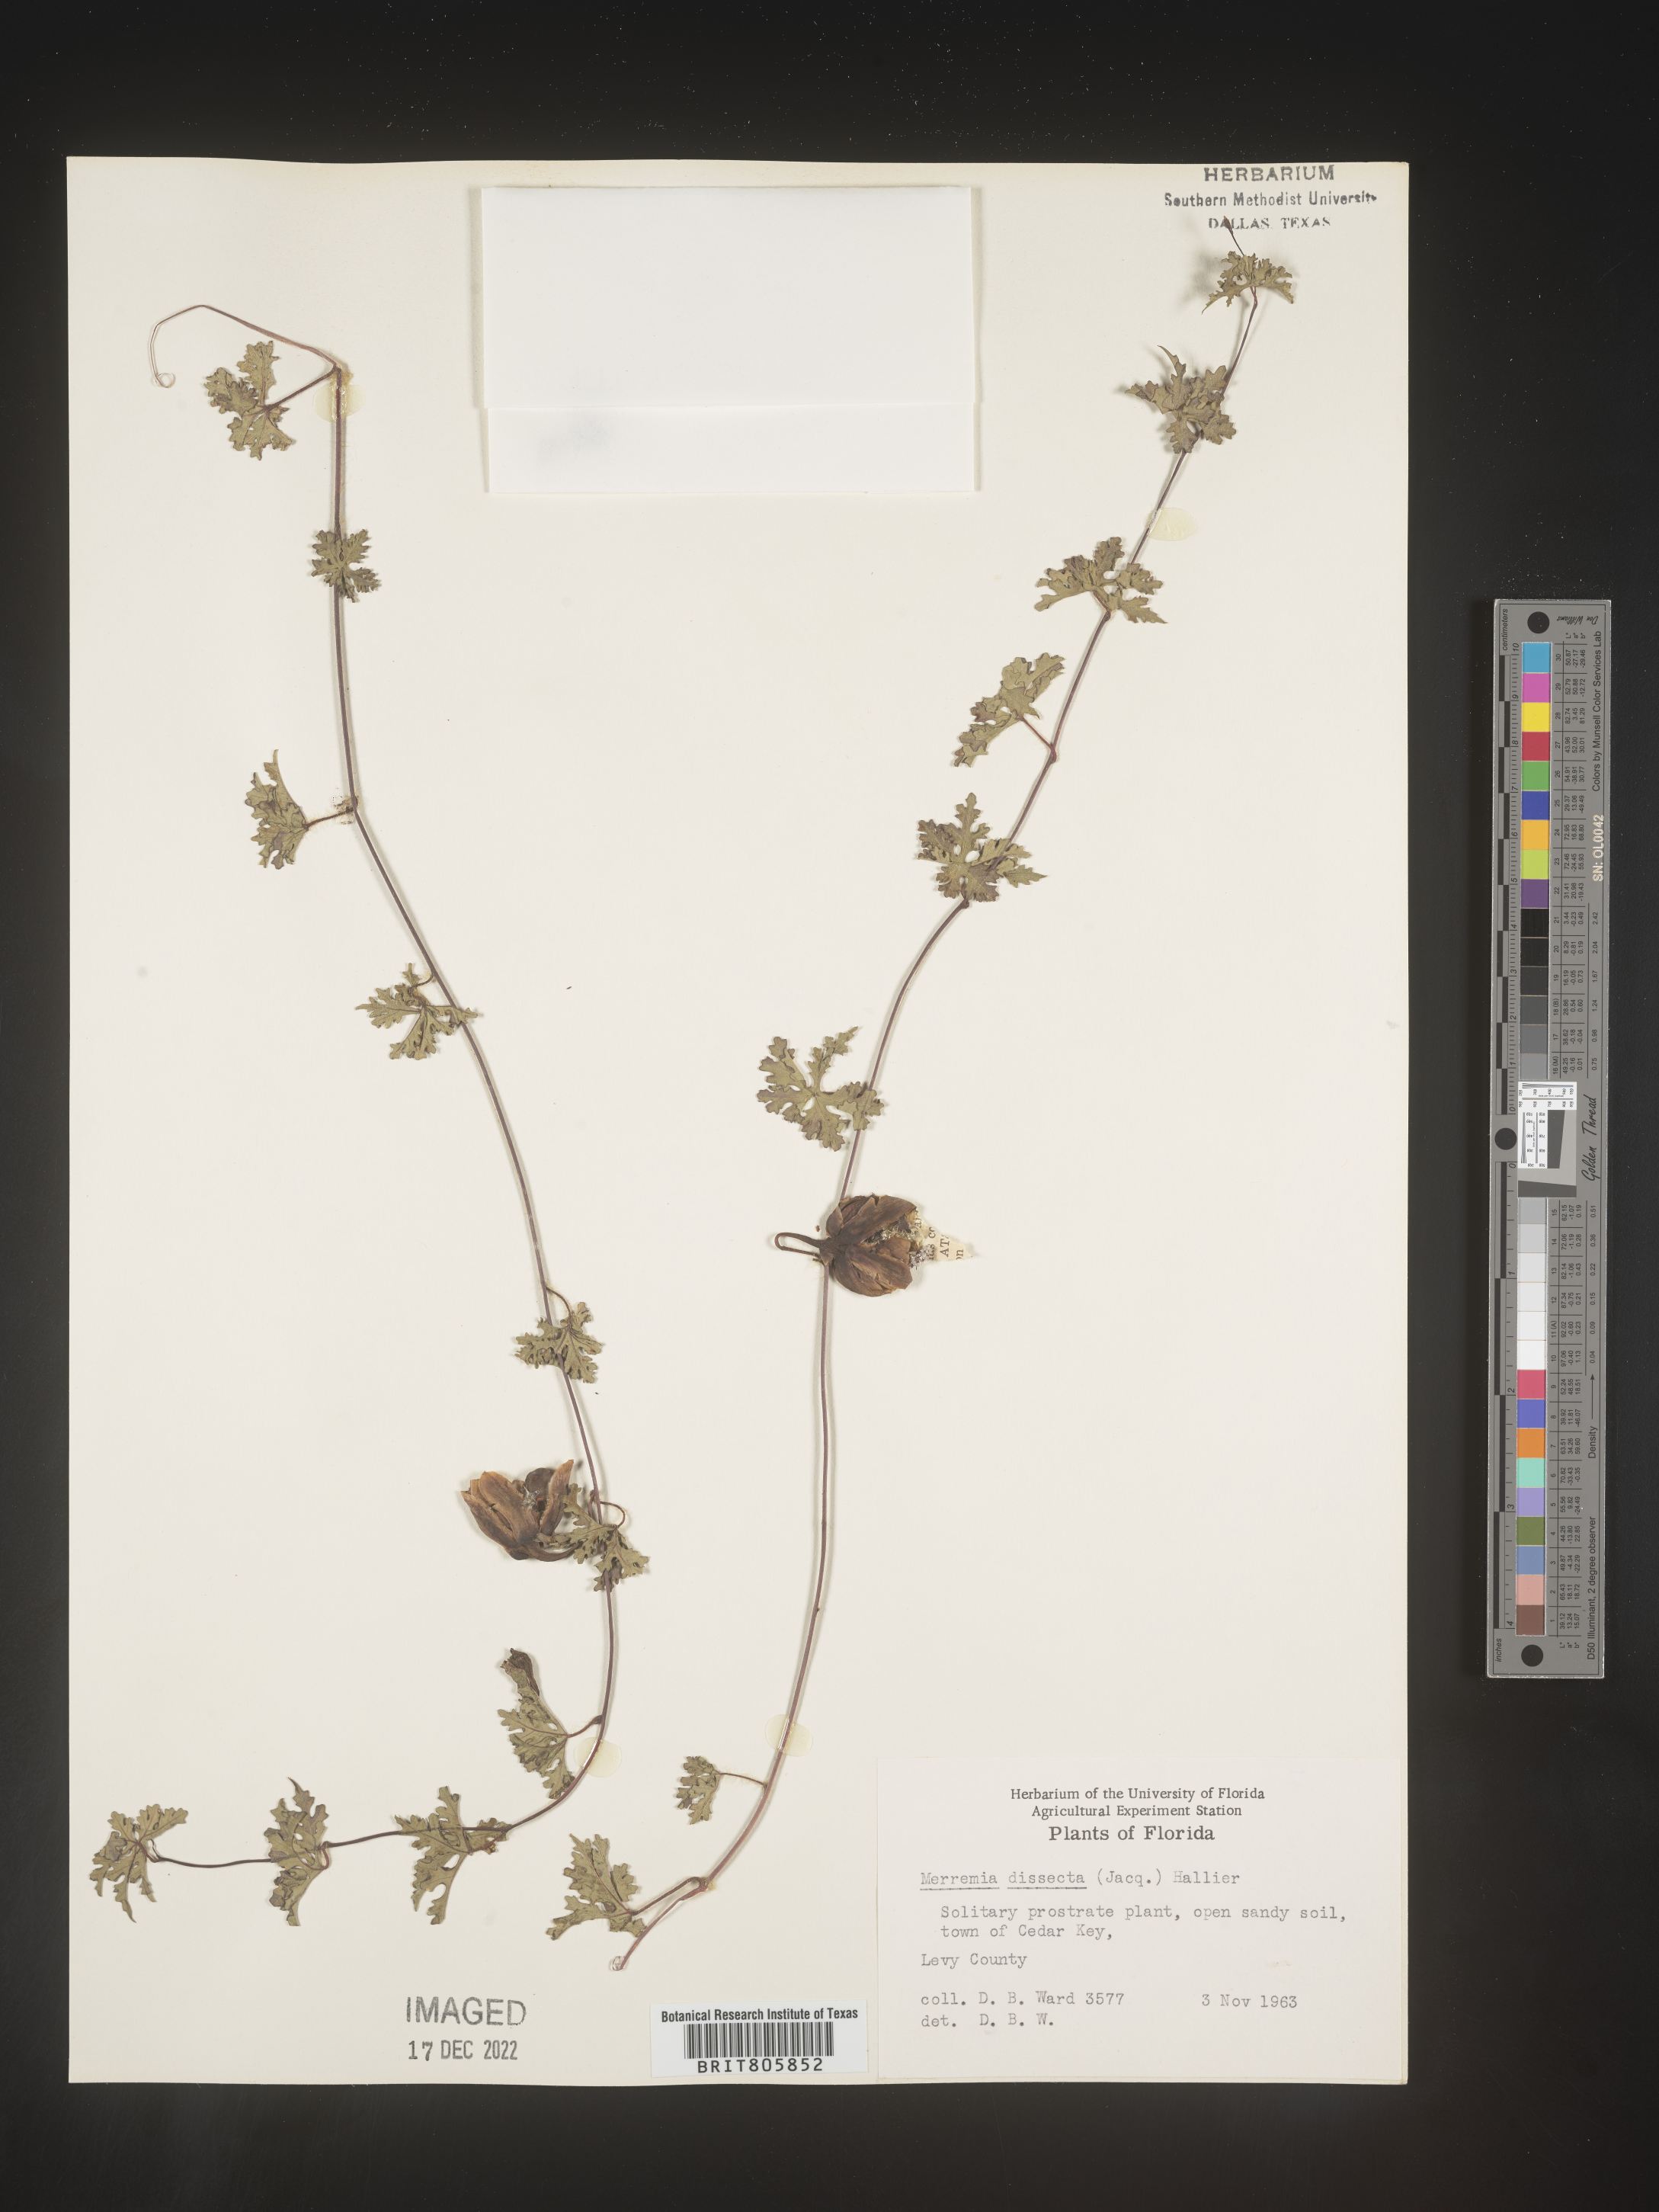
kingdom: Plantae
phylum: Tracheophyta
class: Magnoliopsida
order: Solanales
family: Convolvulaceae
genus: Merremia
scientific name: Merremia
